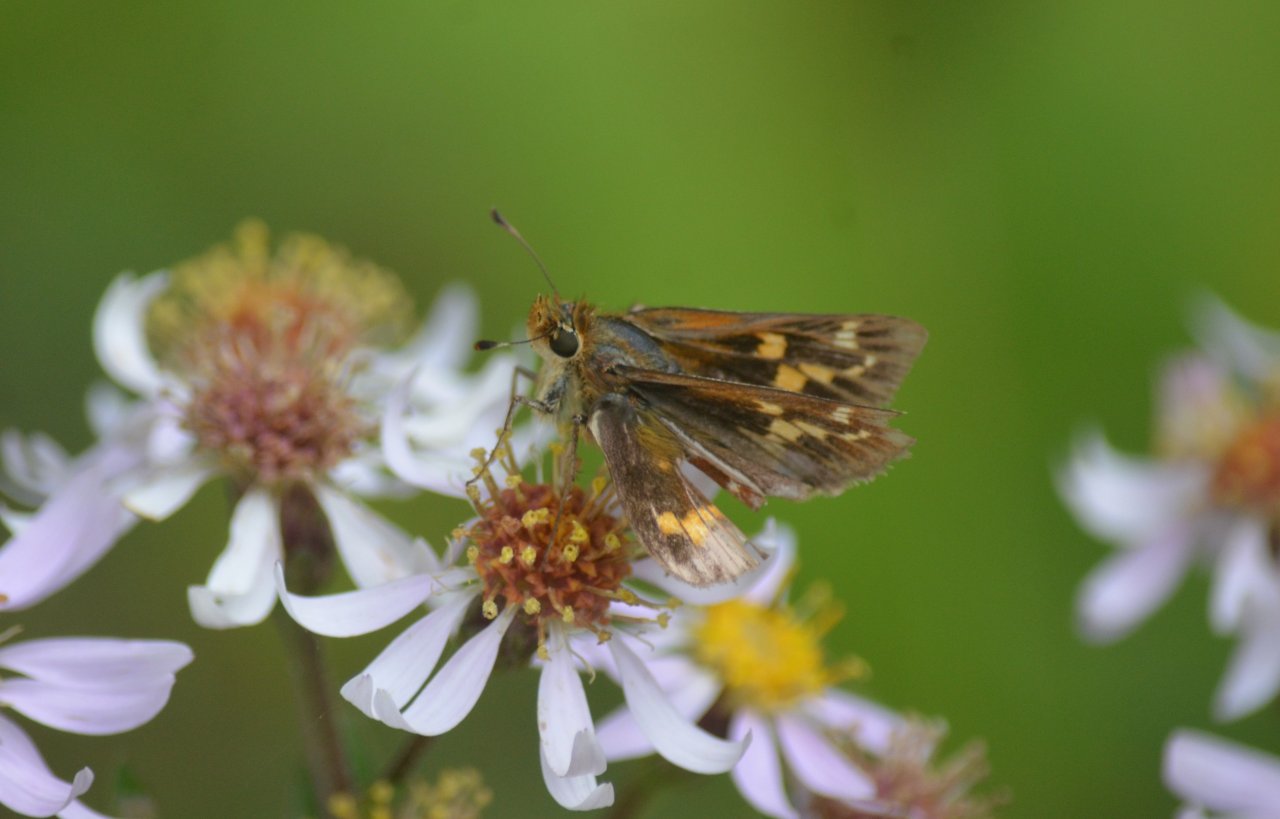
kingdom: Animalia
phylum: Arthropoda
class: Insecta
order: Lepidoptera
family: Hesperiidae
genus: Hesperia
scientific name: Hesperia leonardus
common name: Leonard's Skipper
